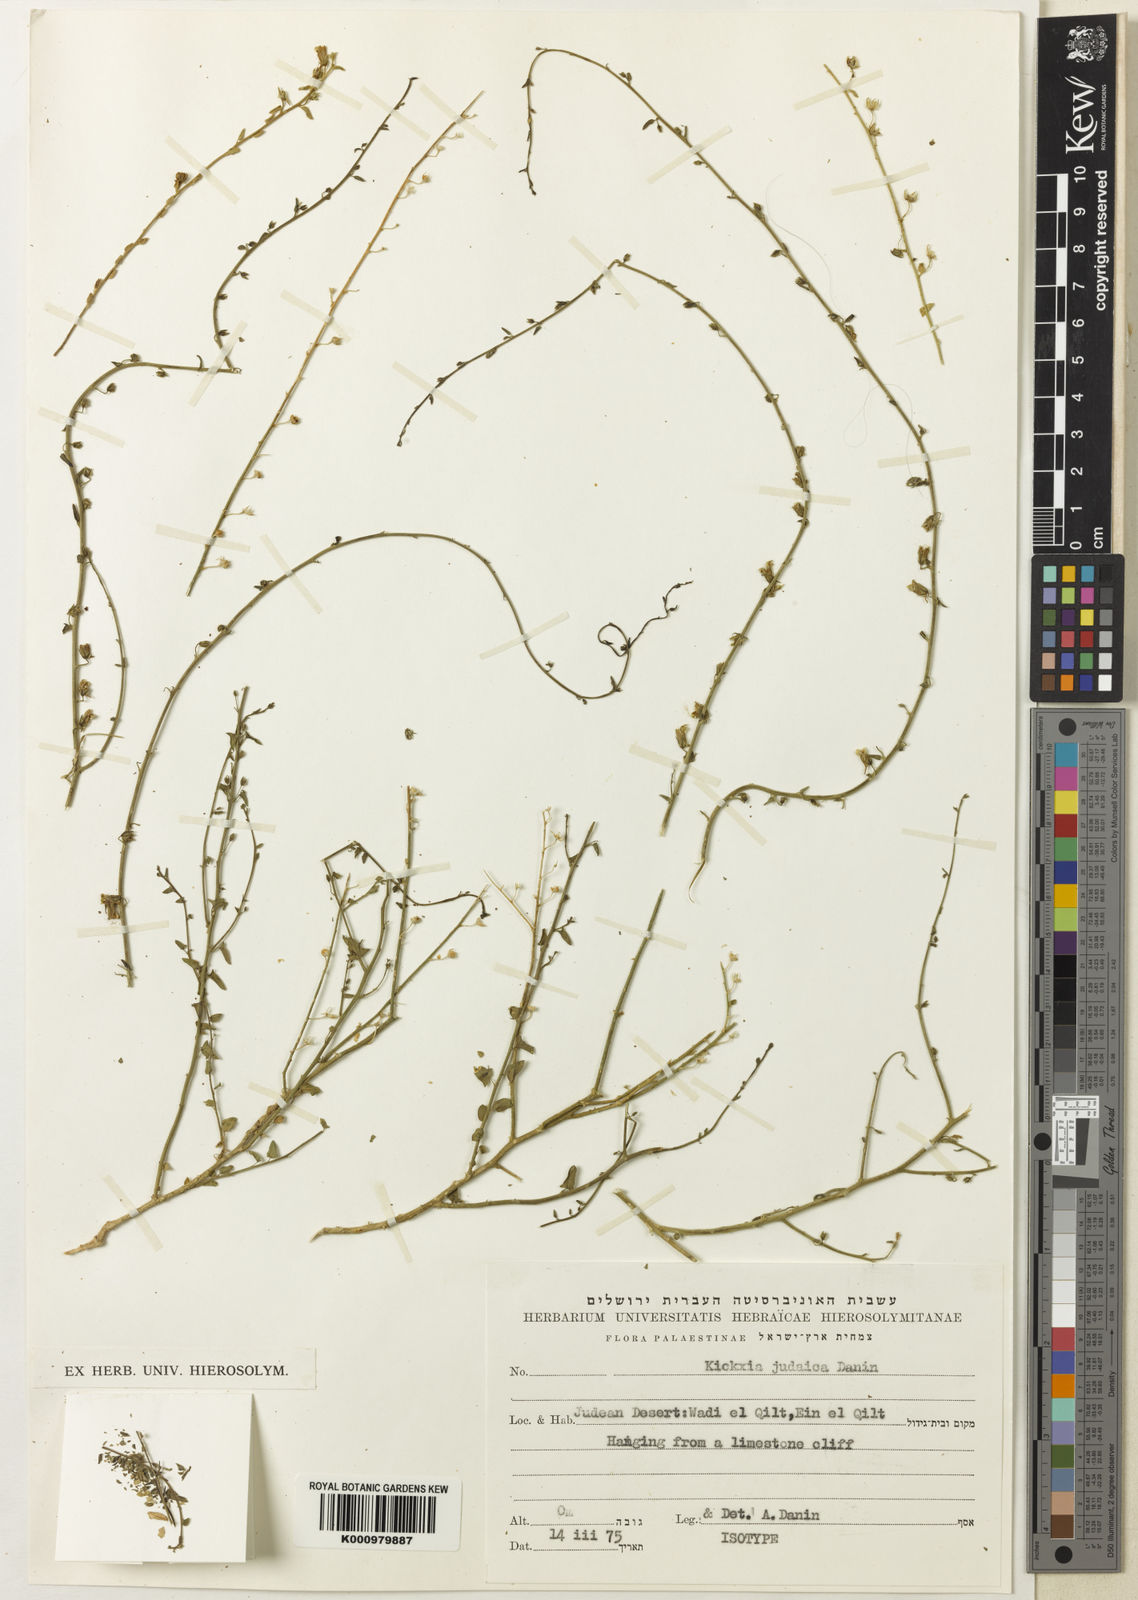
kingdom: Plantae
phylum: Tracheophyta
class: Magnoliopsida
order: Lamiales
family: Plantaginaceae
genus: Nanorrhinum
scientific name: Nanorrhinum judaicum
